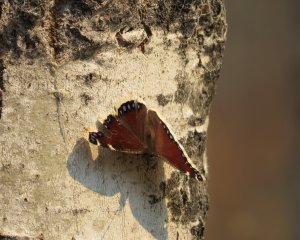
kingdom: Animalia
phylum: Arthropoda
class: Insecta
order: Lepidoptera
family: Nymphalidae
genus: Nymphalis
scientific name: Nymphalis antiopa
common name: Mourning Cloak
